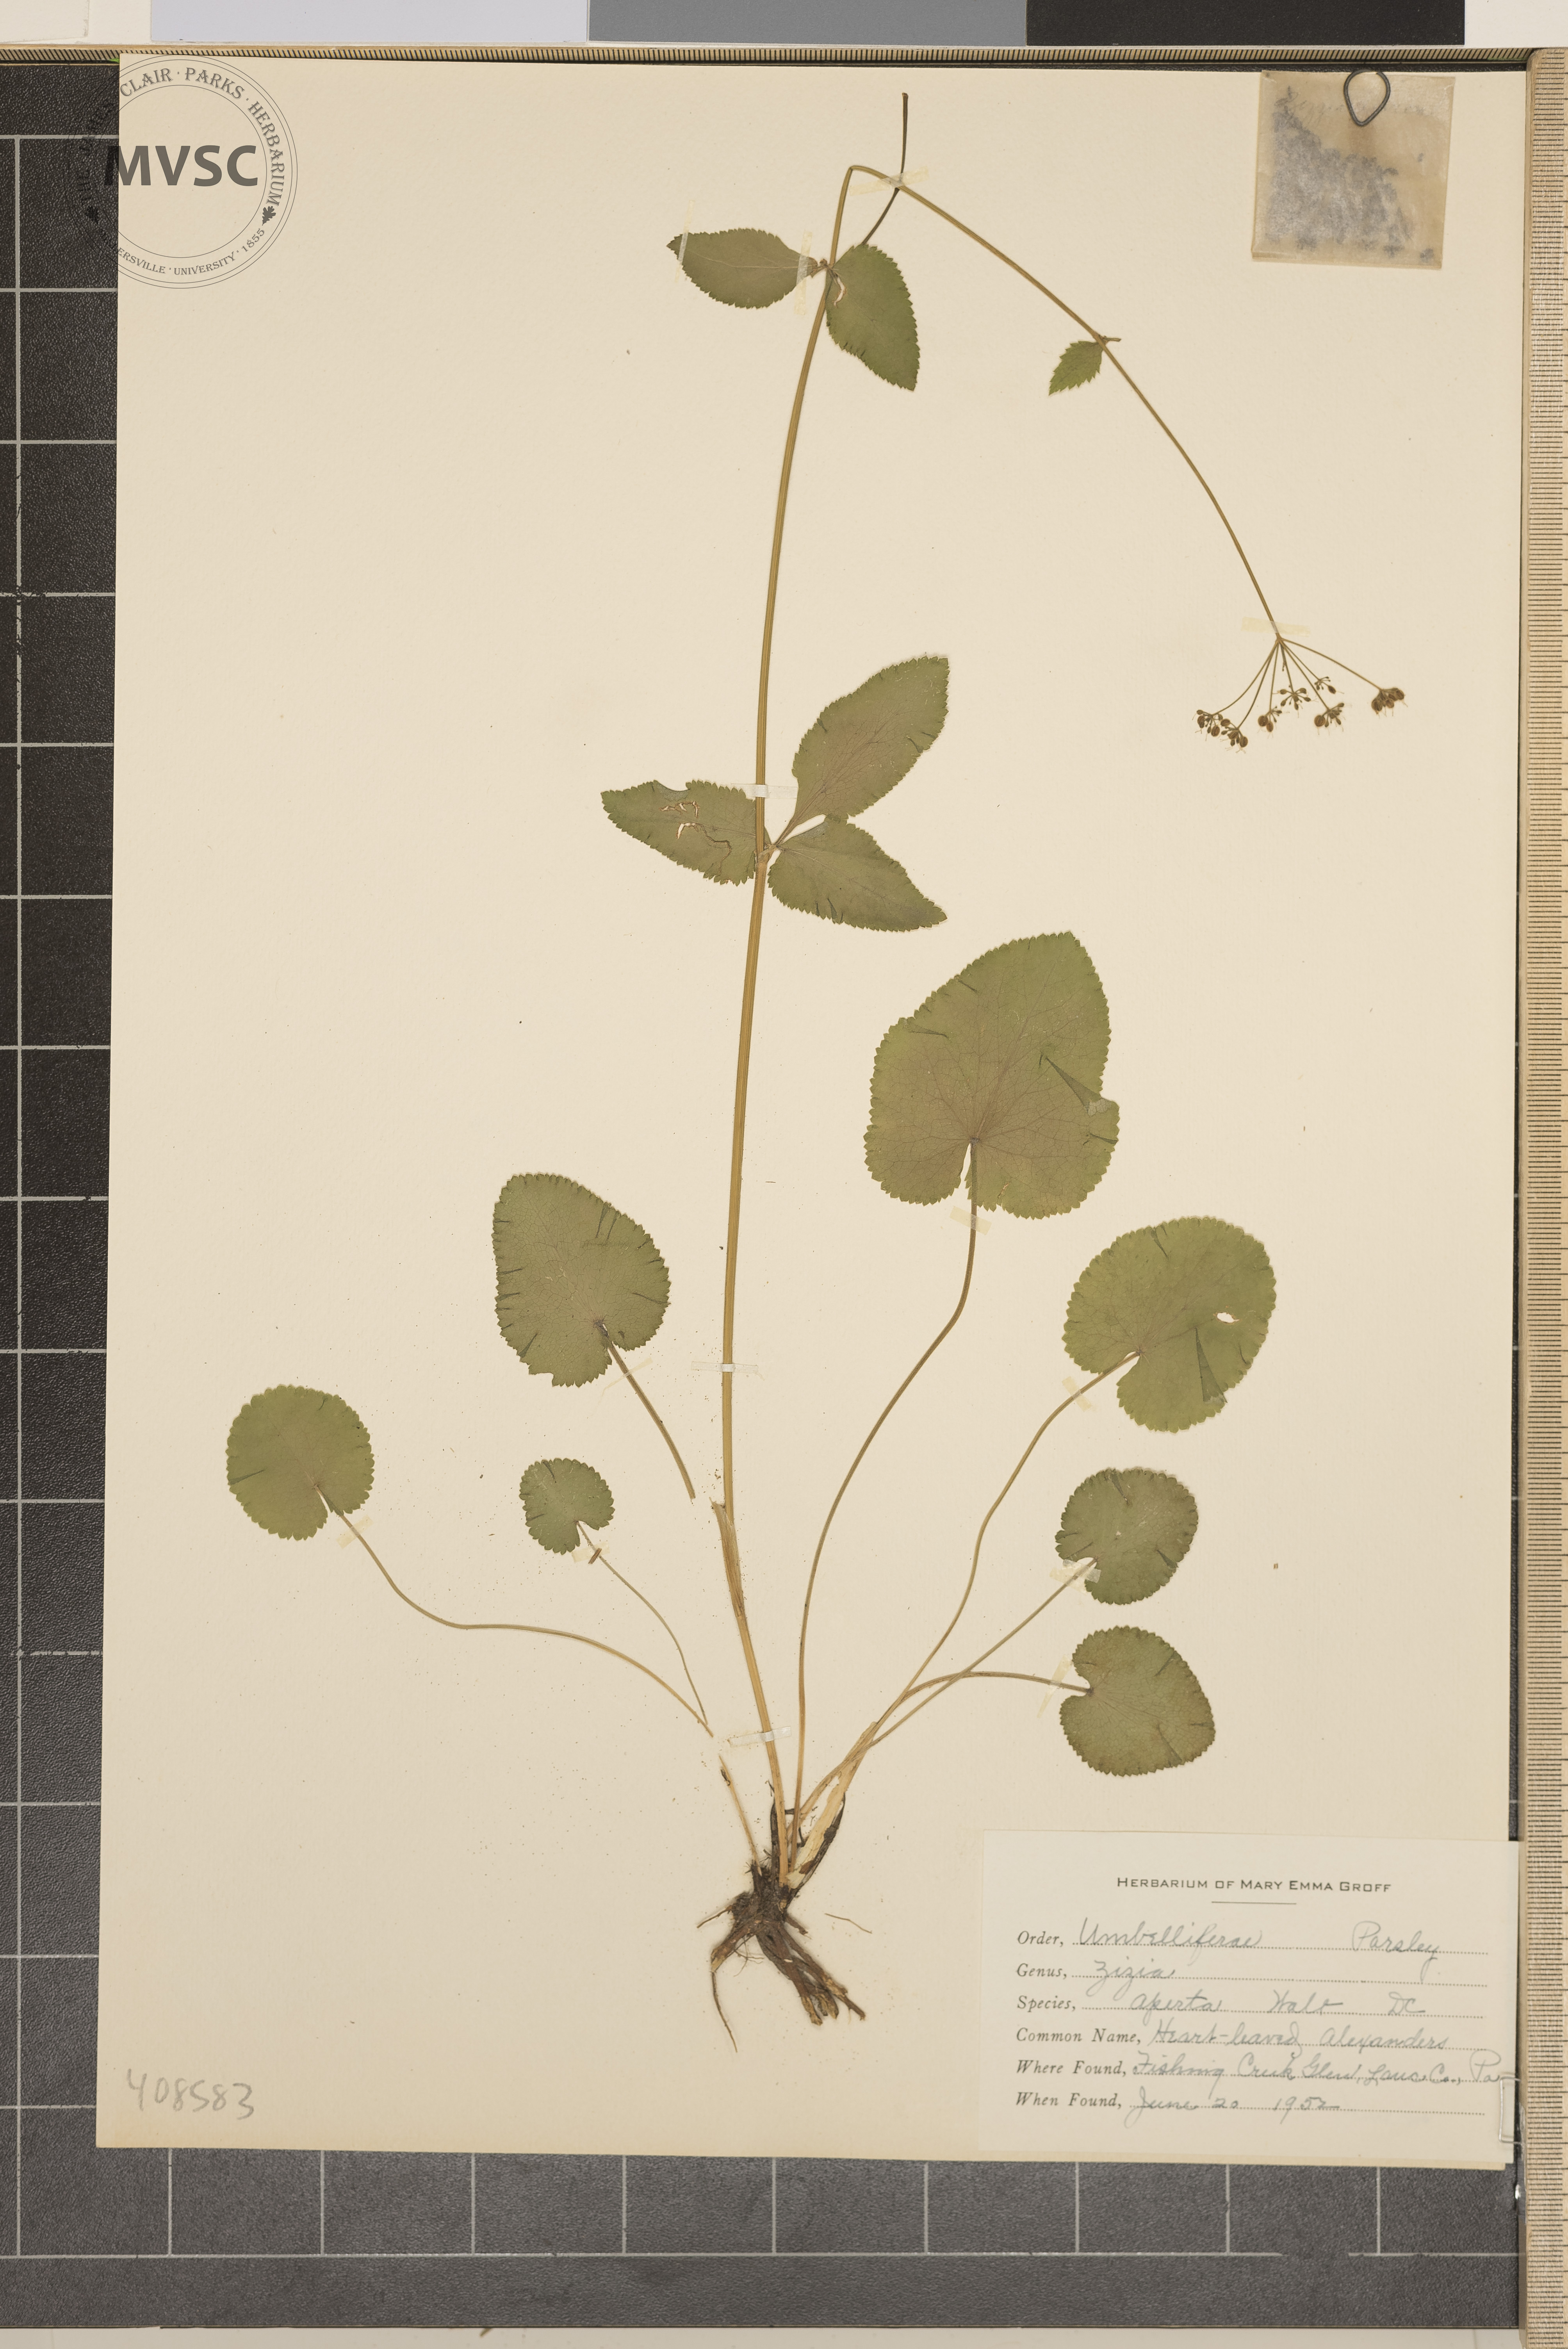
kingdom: Plantae
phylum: Tracheophyta
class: Magnoliopsida
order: Apiales
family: Apiaceae
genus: Zizia
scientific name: Zizia aptera
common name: heart-leaved Alexanders
